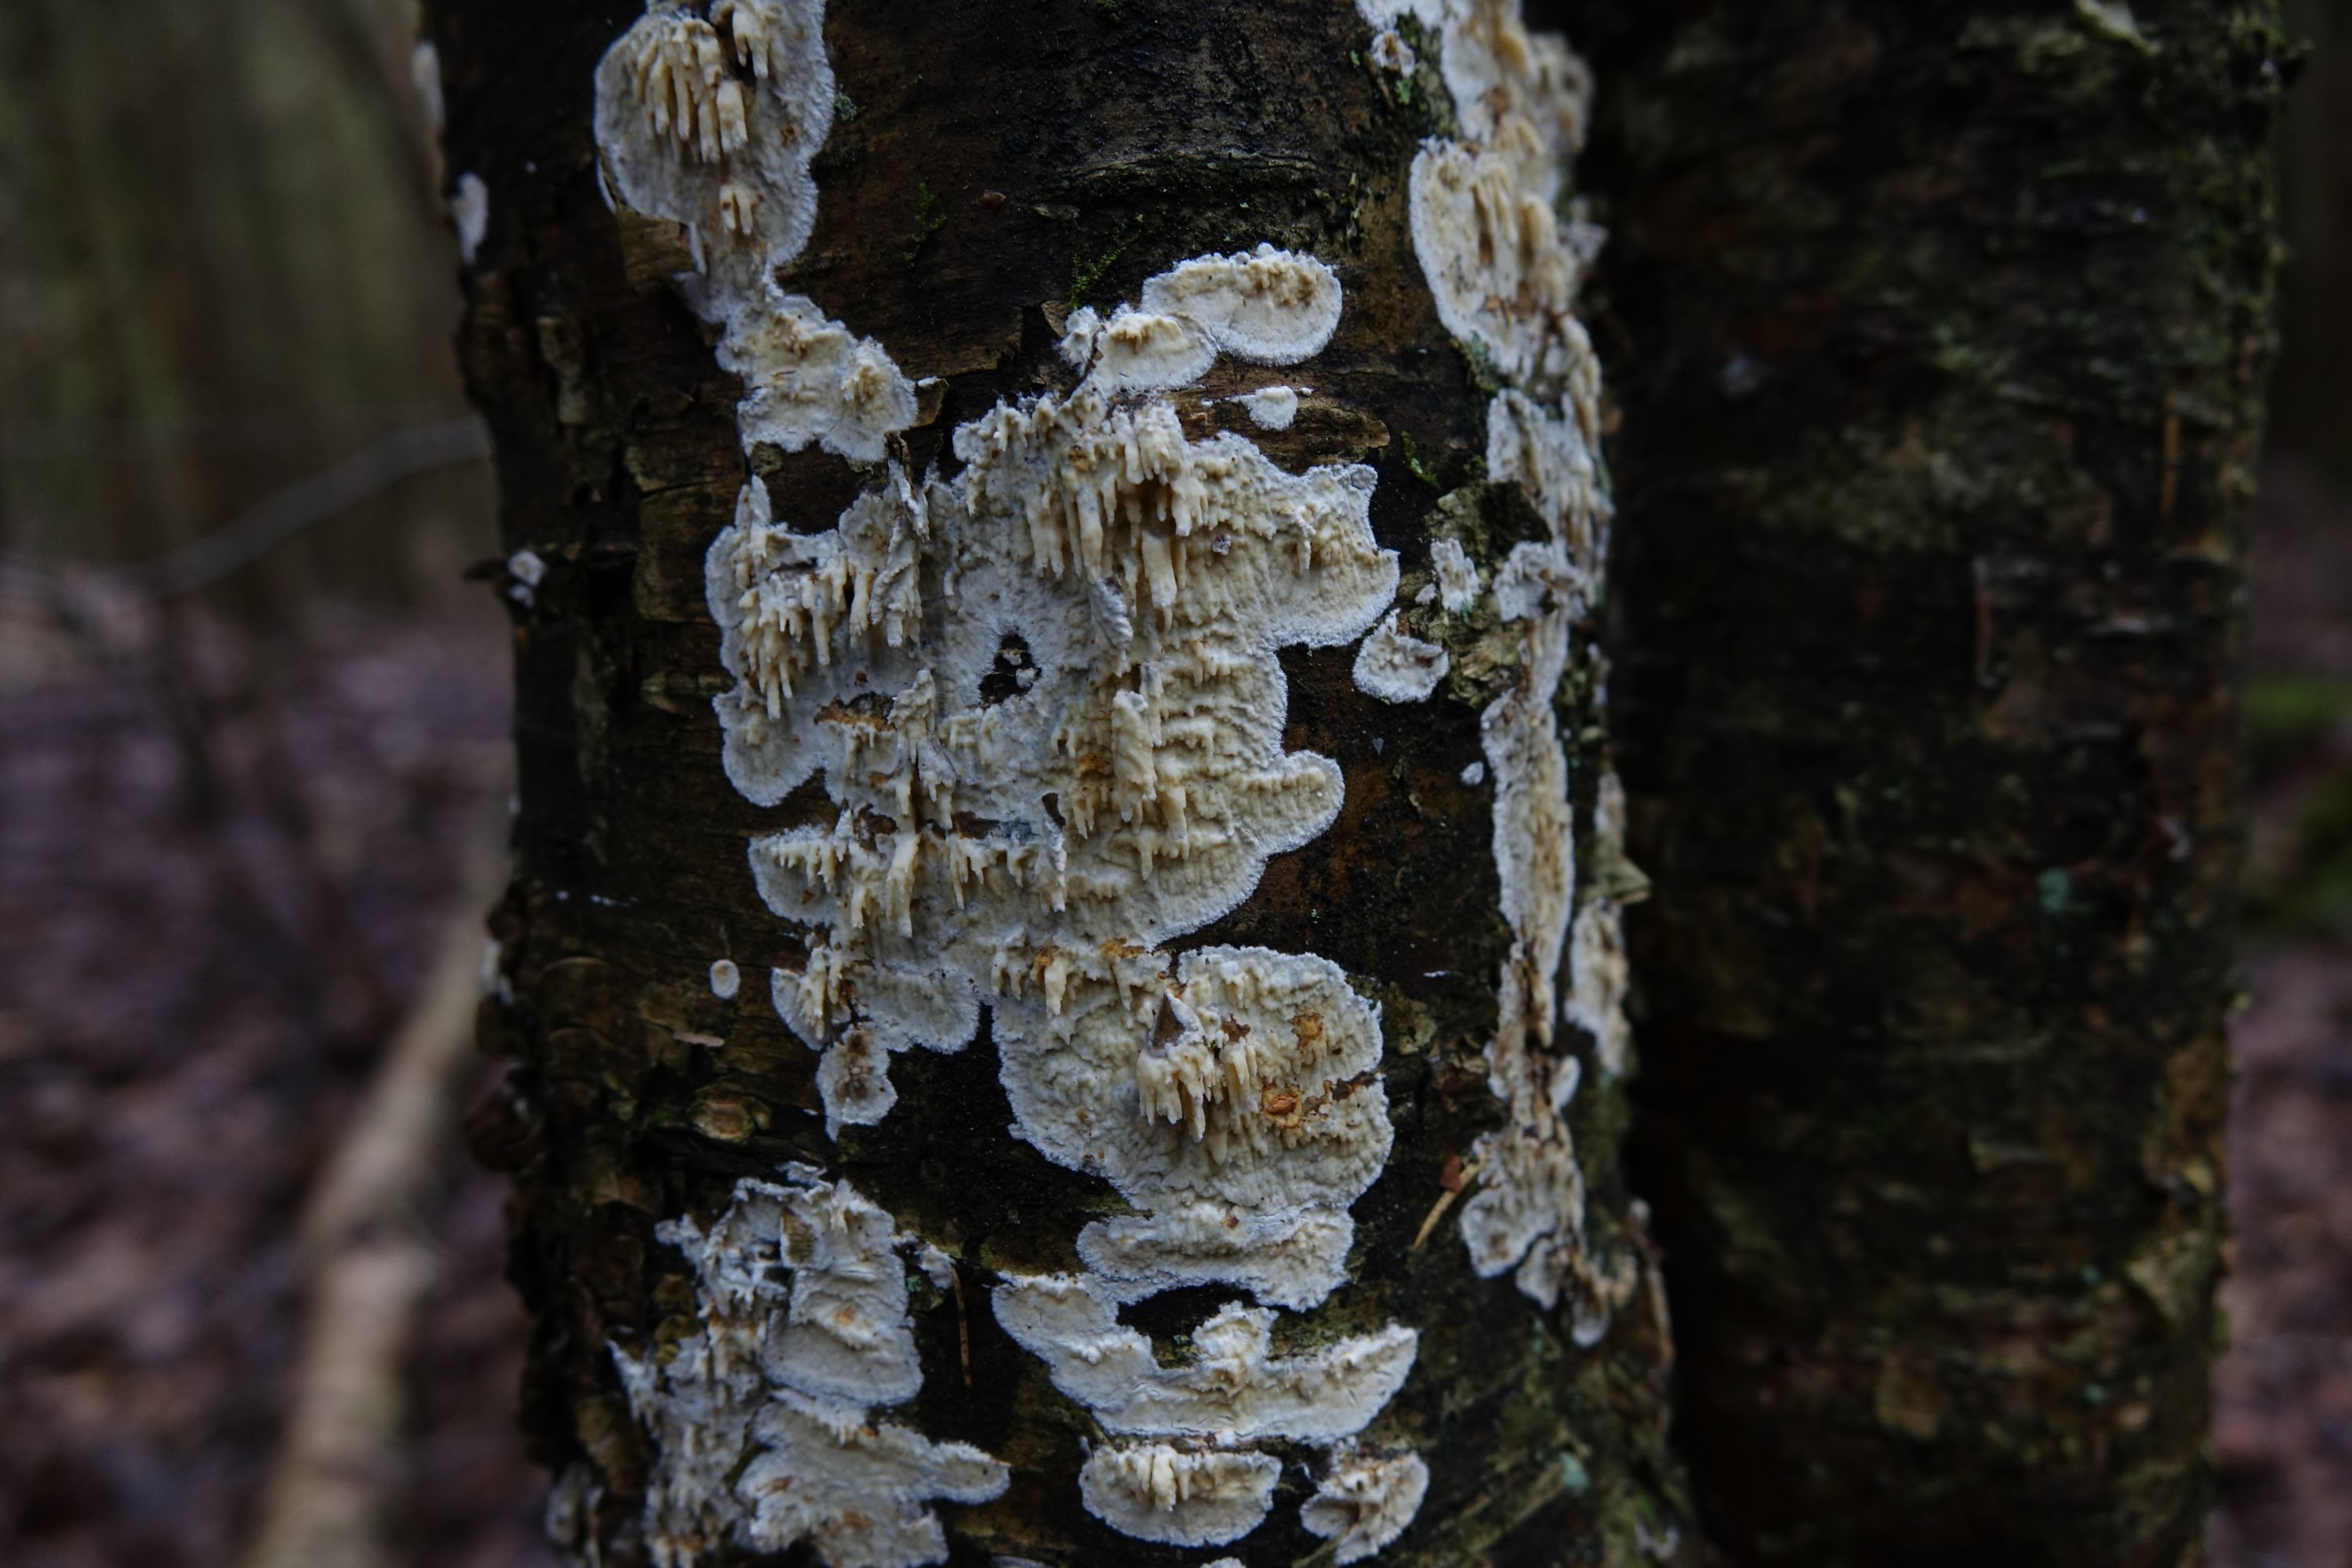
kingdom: Fungi
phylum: Basidiomycota
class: Agaricomycetes
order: Hymenochaetales
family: Schizoporaceae
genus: Xylodon
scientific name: Xylodon radula
